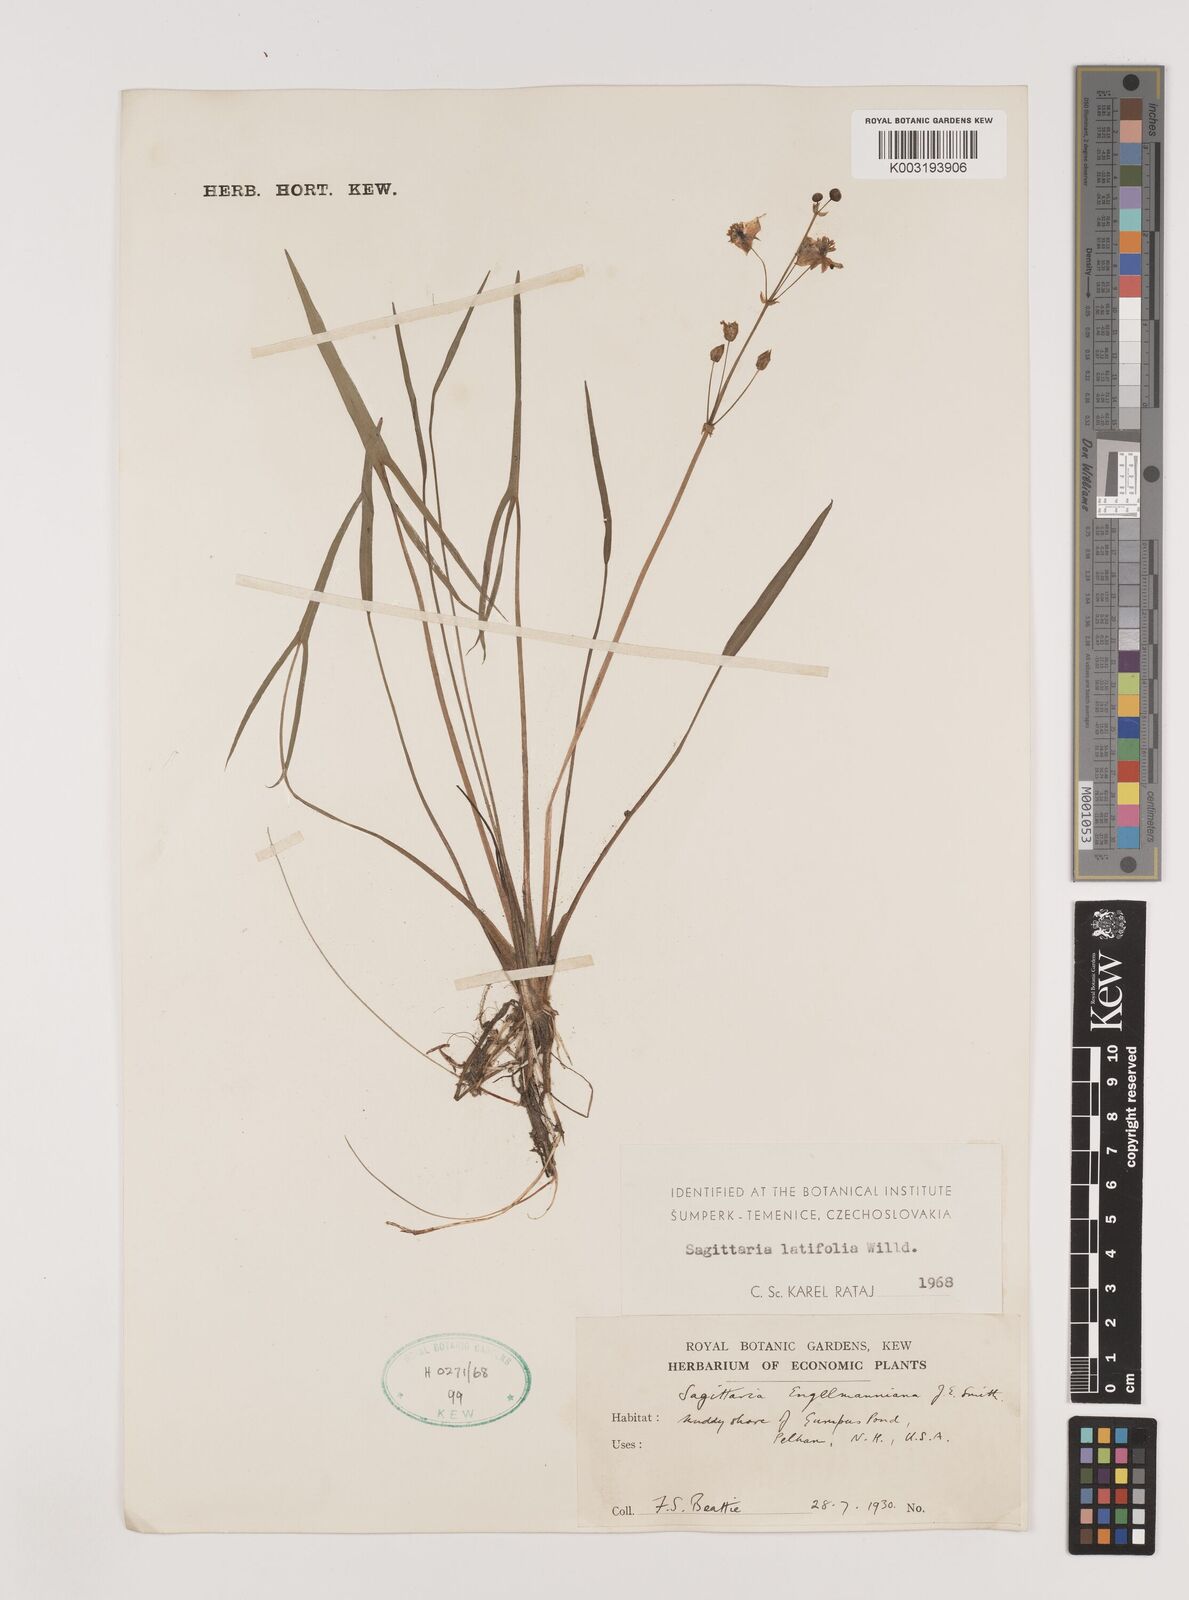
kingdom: Plantae
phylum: Tracheophyta
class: Liliopsida
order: Alismatales
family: Alismataceae
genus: Sagittaria
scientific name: Sagittaria latifolia
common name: Duck-potato
